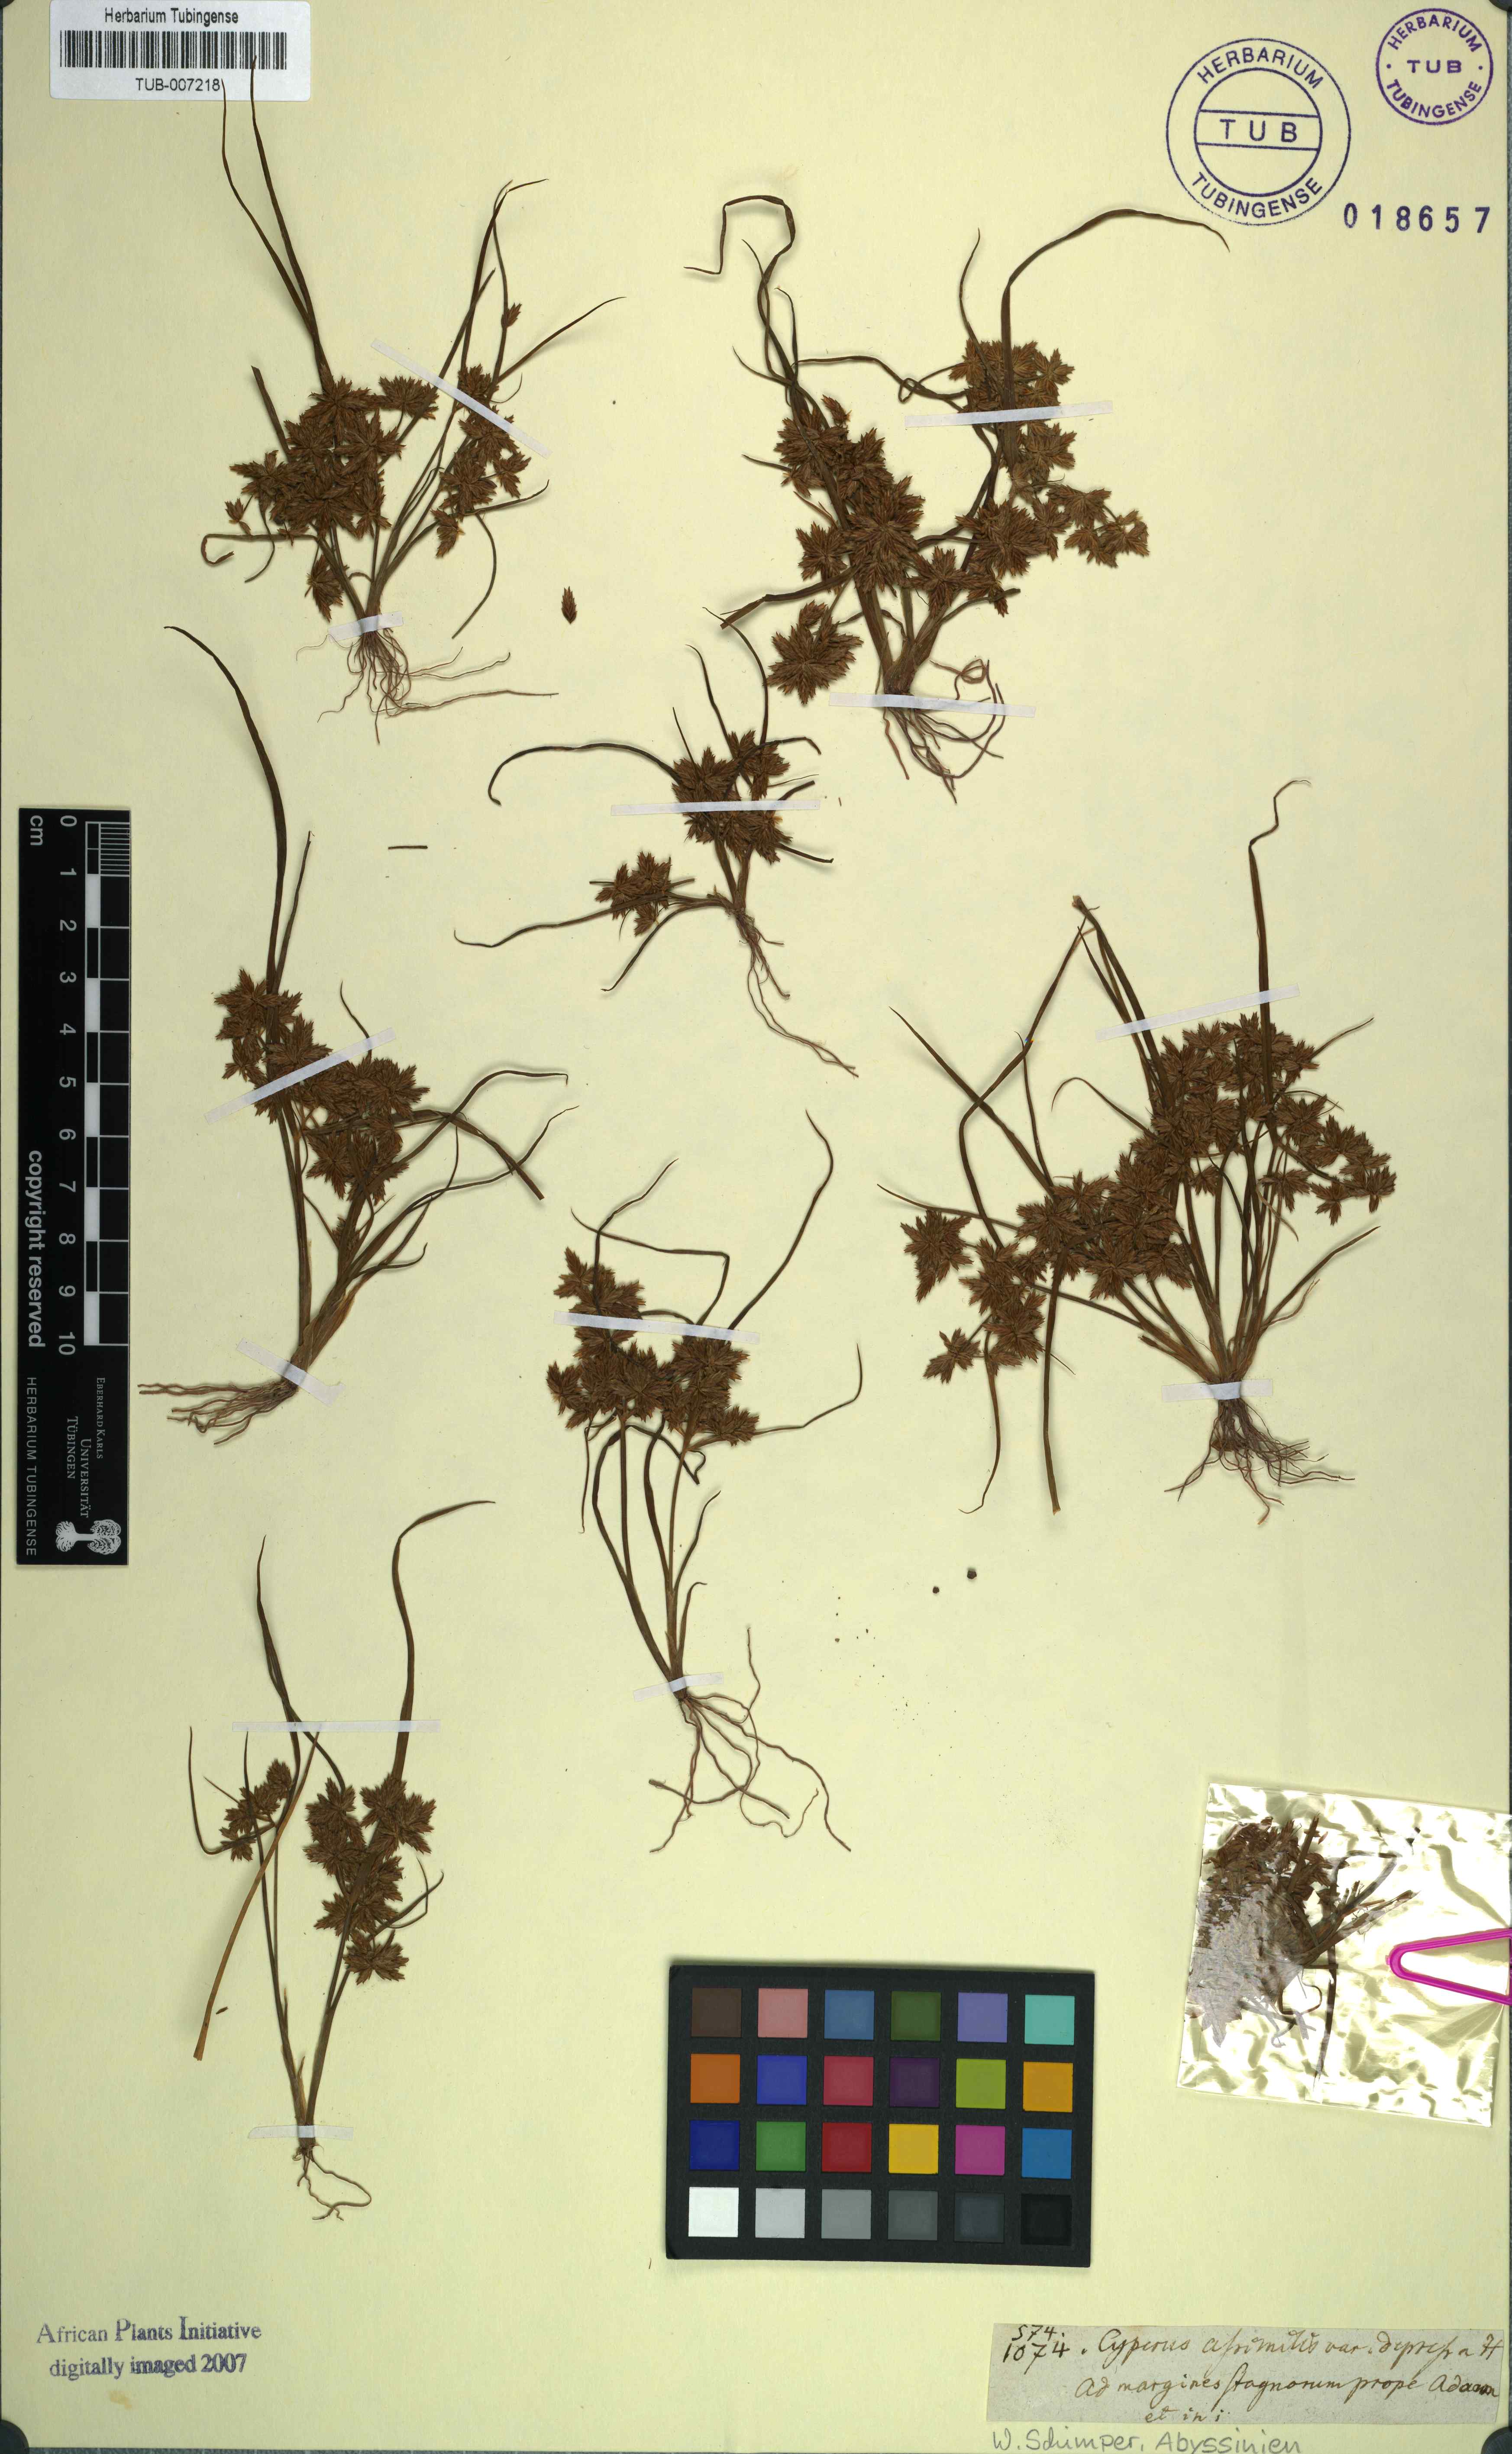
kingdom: Plantae
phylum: Tracheophyta
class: Liliopsida
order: Poales
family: Cyperaceae
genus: Cyperus
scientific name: Cyperus assimilis
